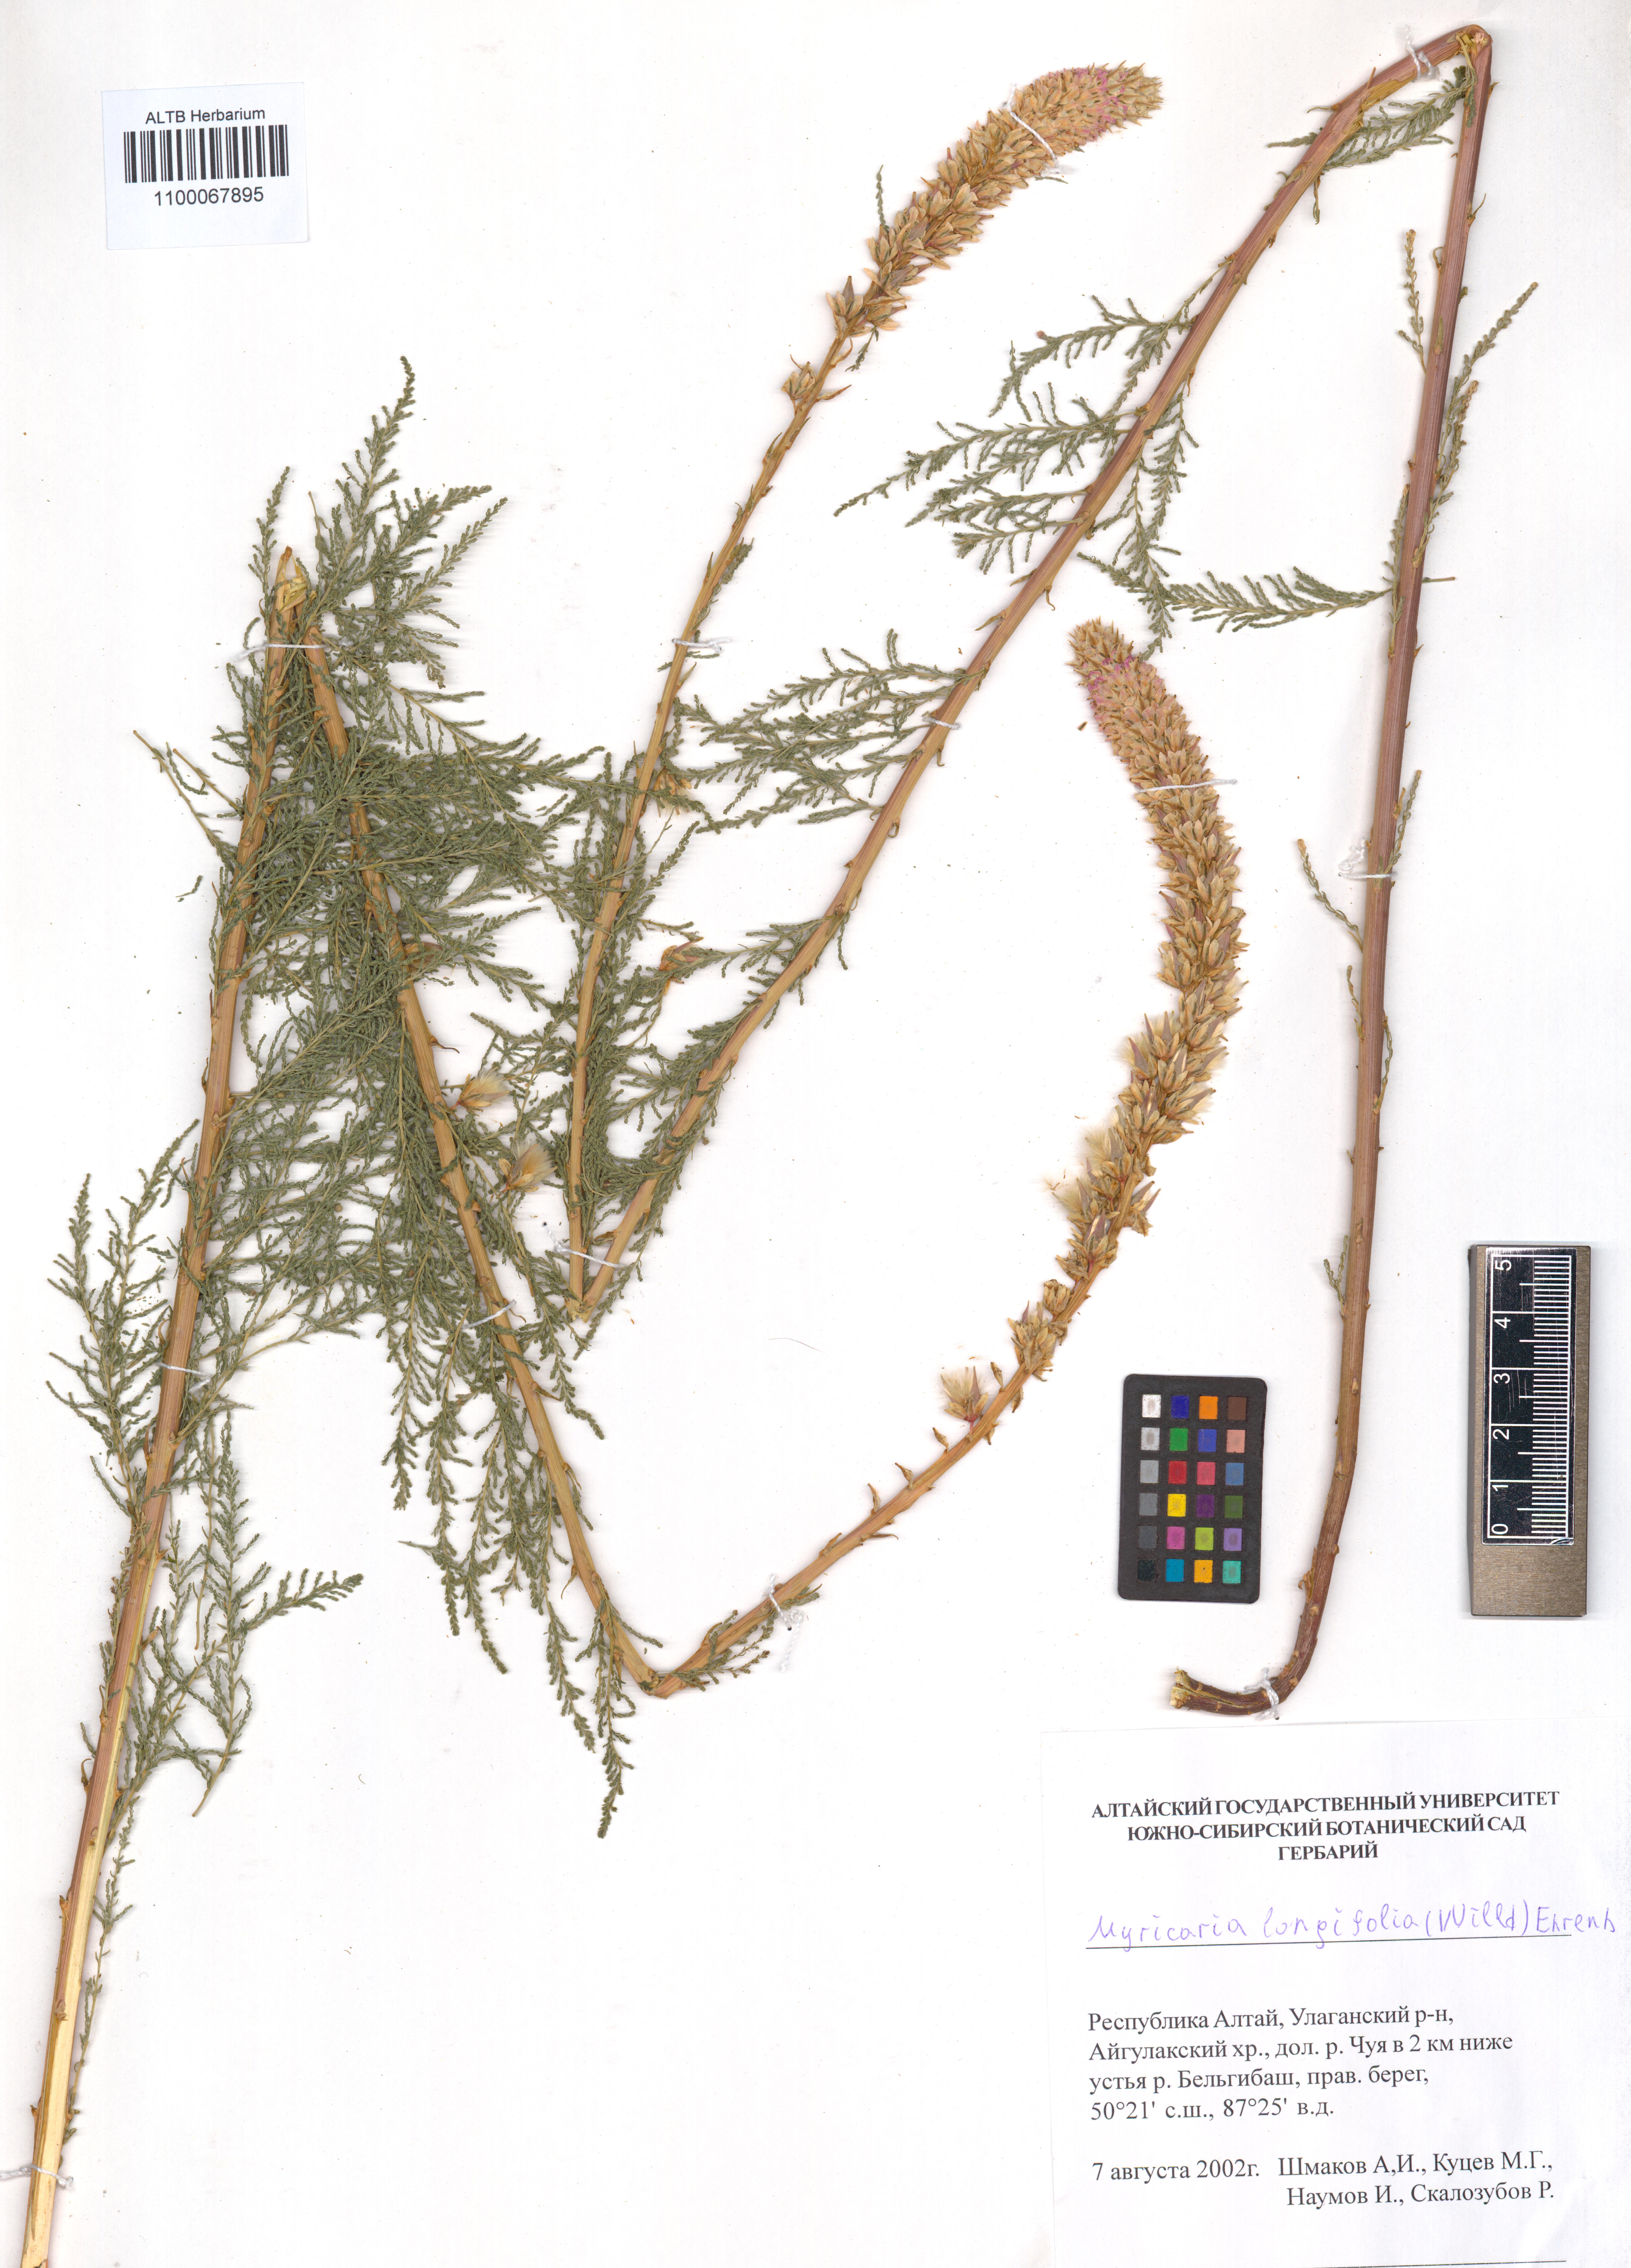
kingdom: Plantae
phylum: Tracheophyta
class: Magnoliopsida
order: Caryophyllales
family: Tamaricaceae
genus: Myricaria
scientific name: Myricaria longifolia
